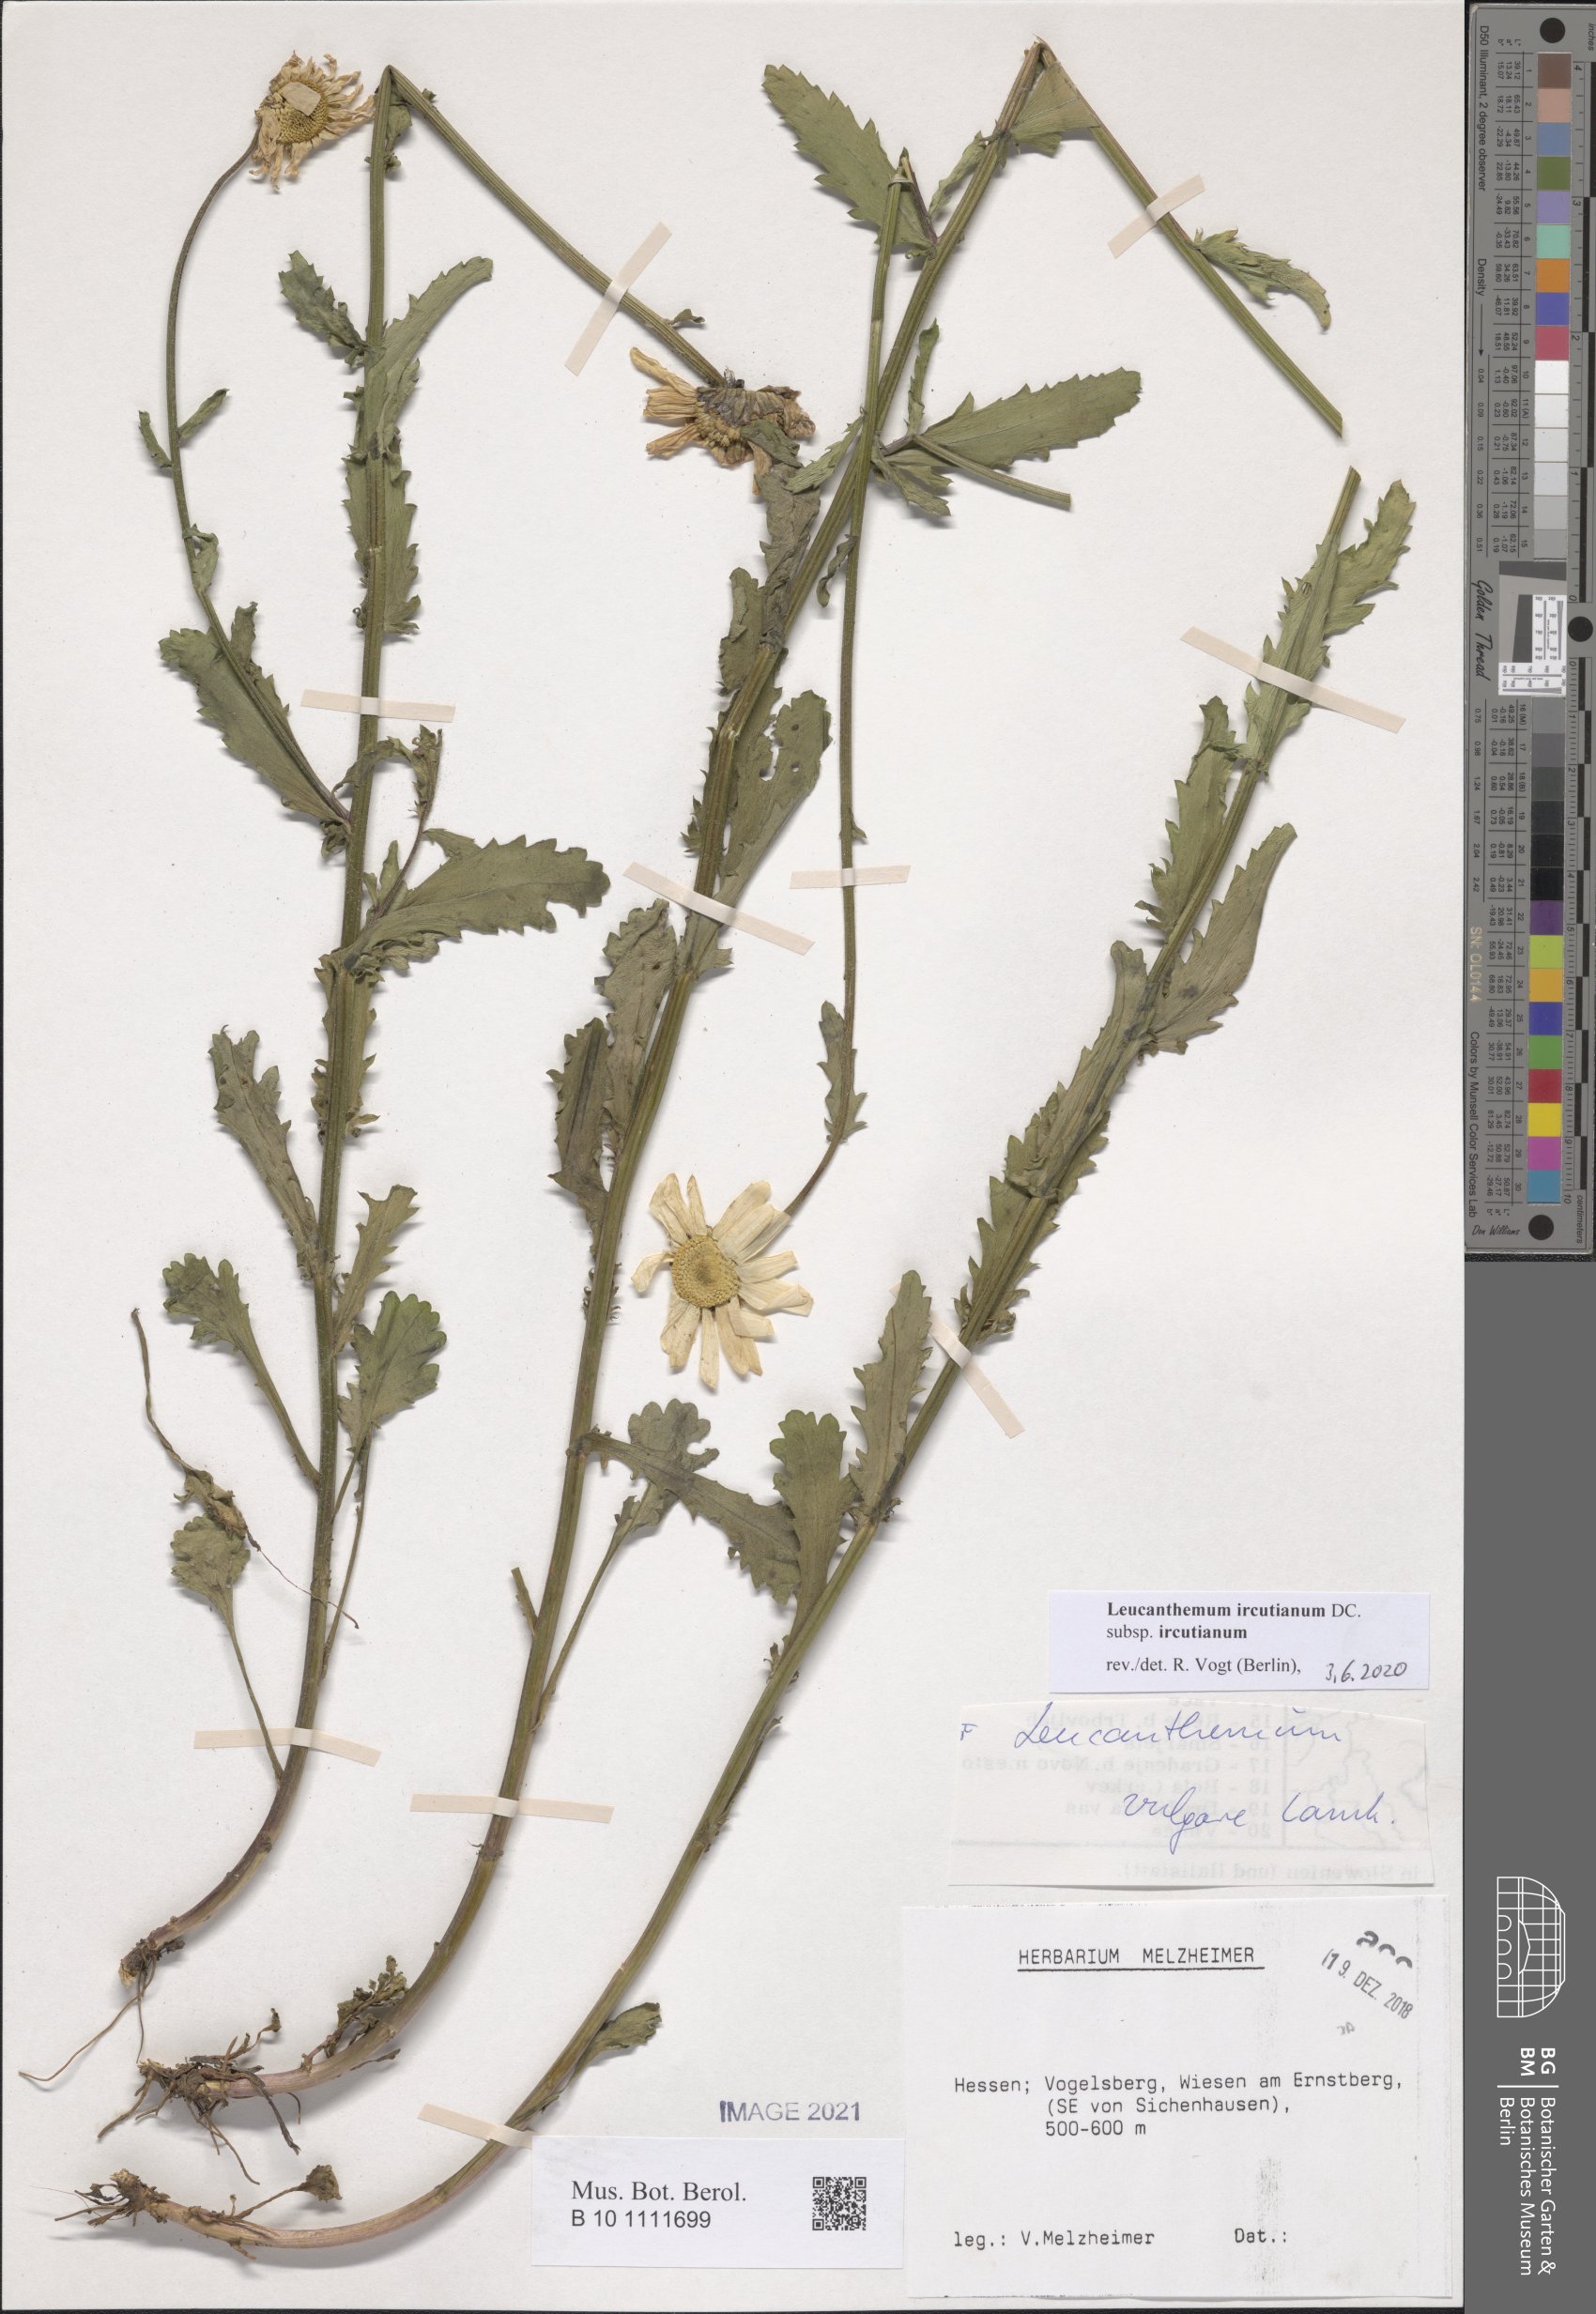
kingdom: Plantae
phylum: Tracheophyta
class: Magnoliopsida
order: Asterales
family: Asteraceae
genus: Leucanthemum
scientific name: Leucanthemum ircutianum
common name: Daisy
